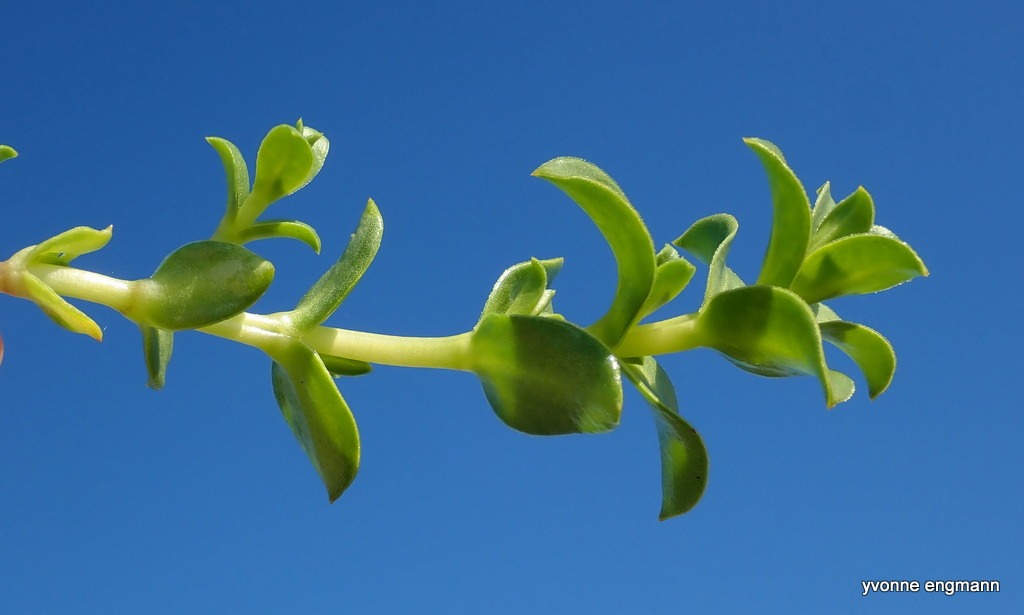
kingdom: Plantae
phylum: Tracheophyta
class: Magnoliopsida
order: Caryophyllales
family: Caryophyllaceae
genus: Honckenya
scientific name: Honckenya peploides
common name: Strandarve
